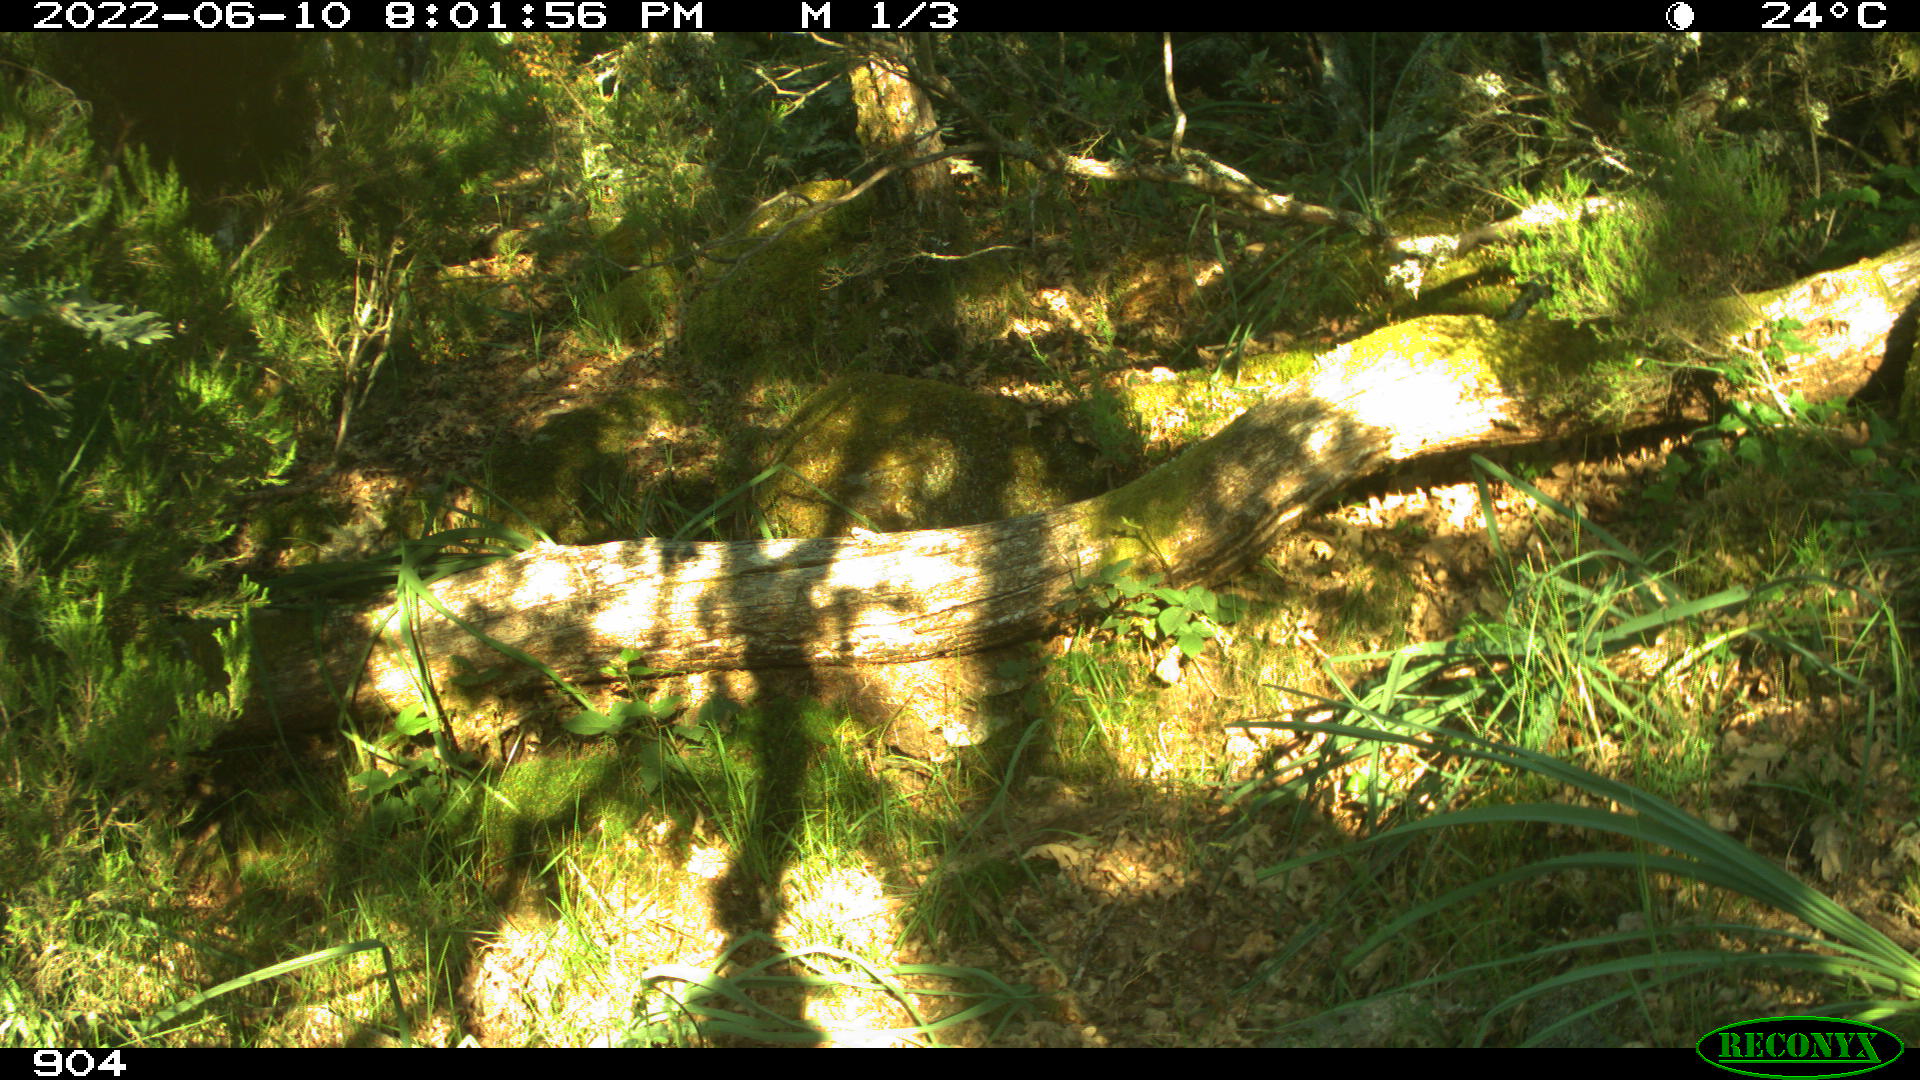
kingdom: Animalia
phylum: Chordata
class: Mammalia
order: Artiodactyla
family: Bovidae
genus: Bos
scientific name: Bos taurus
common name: Domesticated cattle
